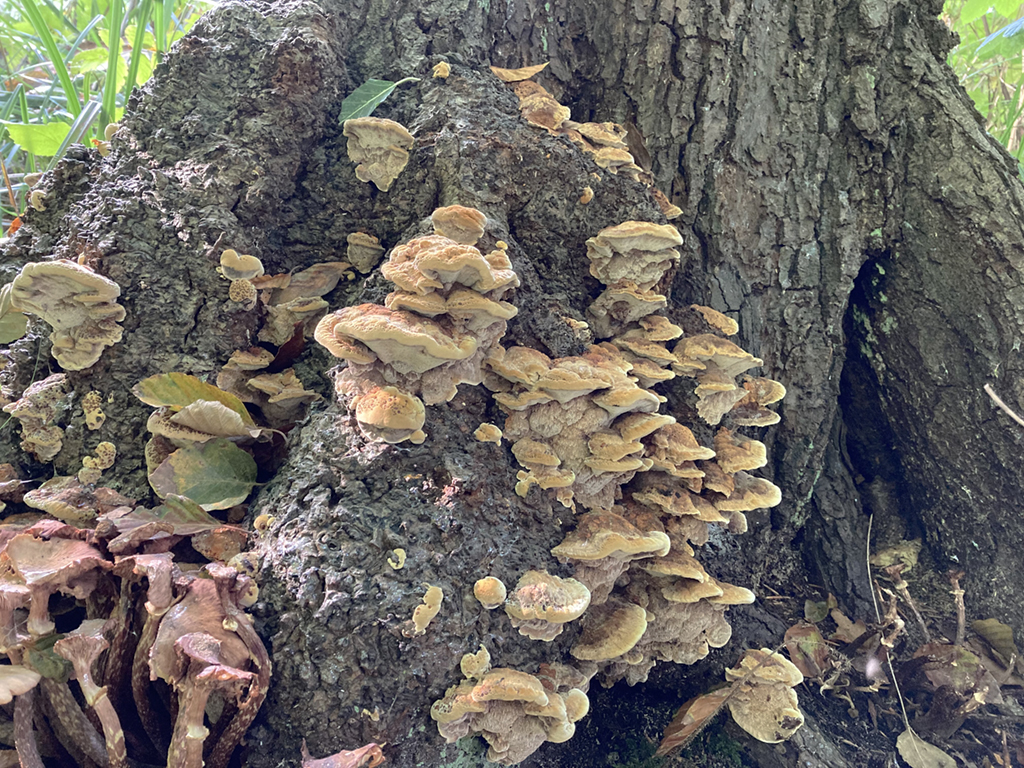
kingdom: Fungi
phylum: Basidiomycota
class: Agaricomycetes
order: Hymenochaetales
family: Hymenochaetaceae
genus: Xanthoporia
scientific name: Xanthoporia radiata
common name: elle-spejlporesvamp
